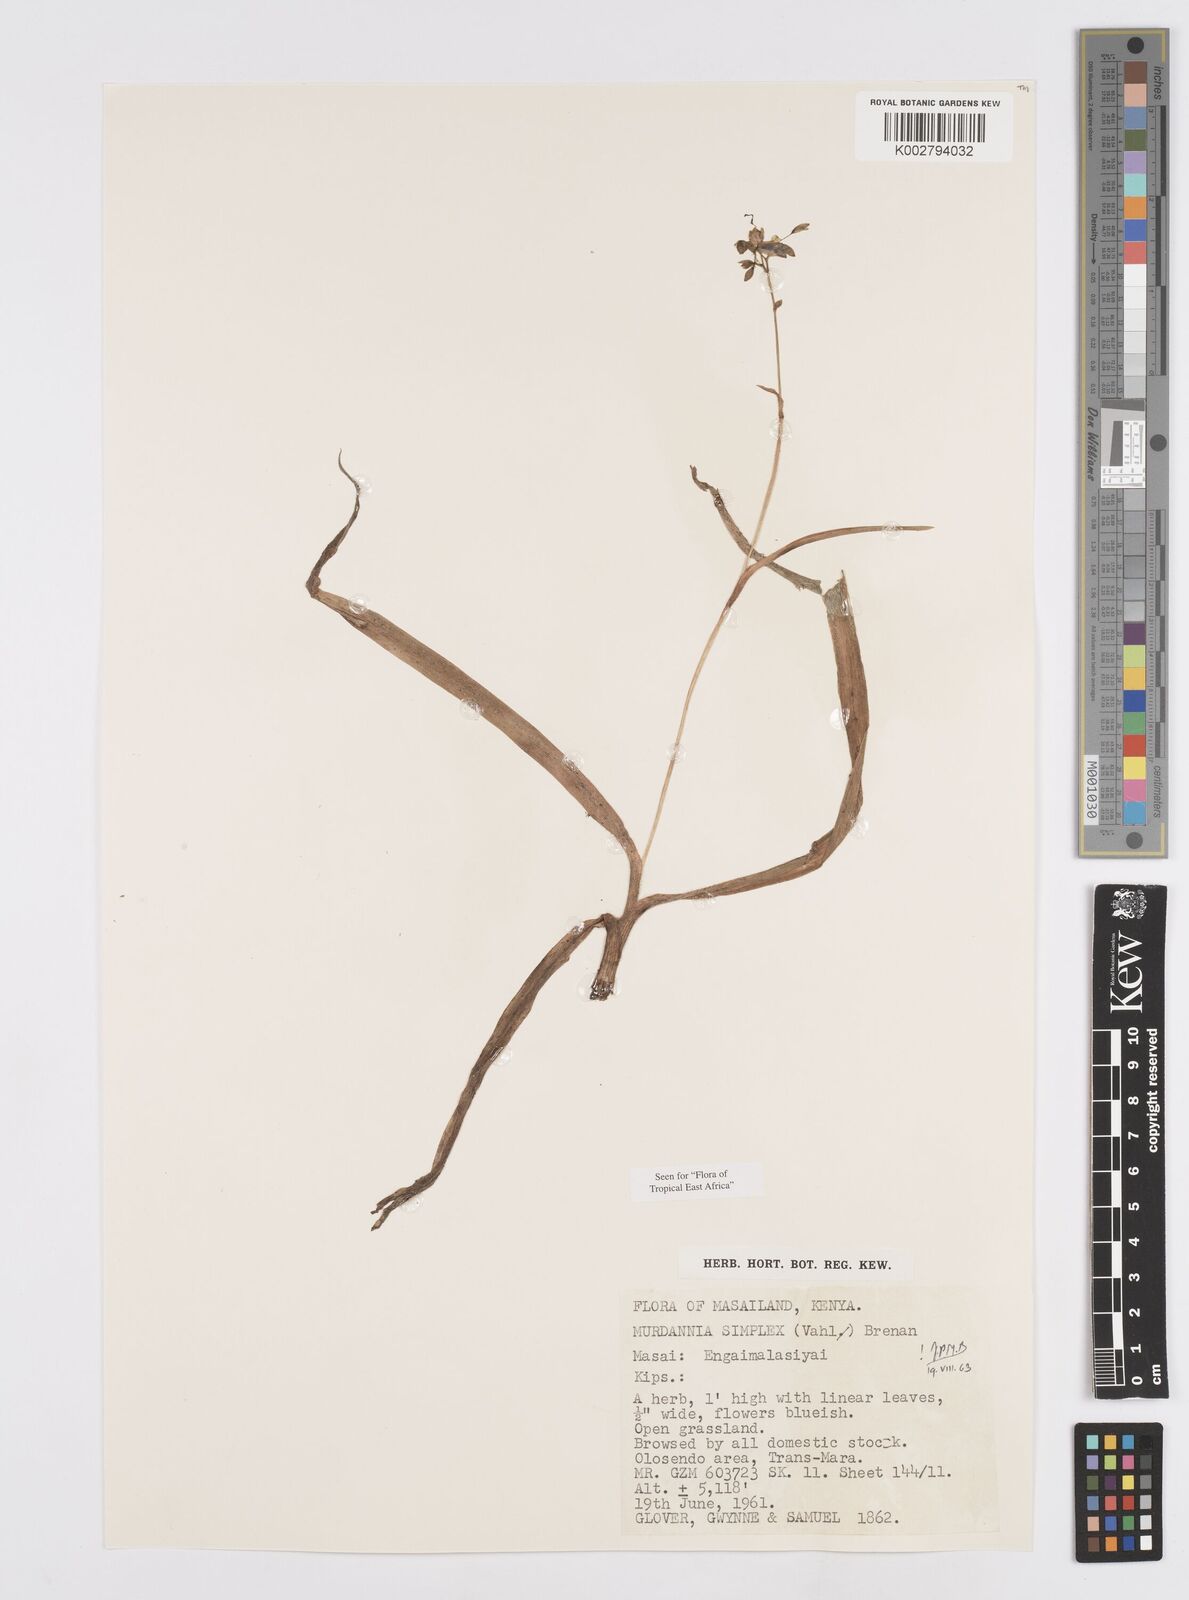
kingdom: Plantae
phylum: Tracheophyta
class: Liliopsida
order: Commelinales
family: Commelinaceae
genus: Murdannia
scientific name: Murdannia simplex
